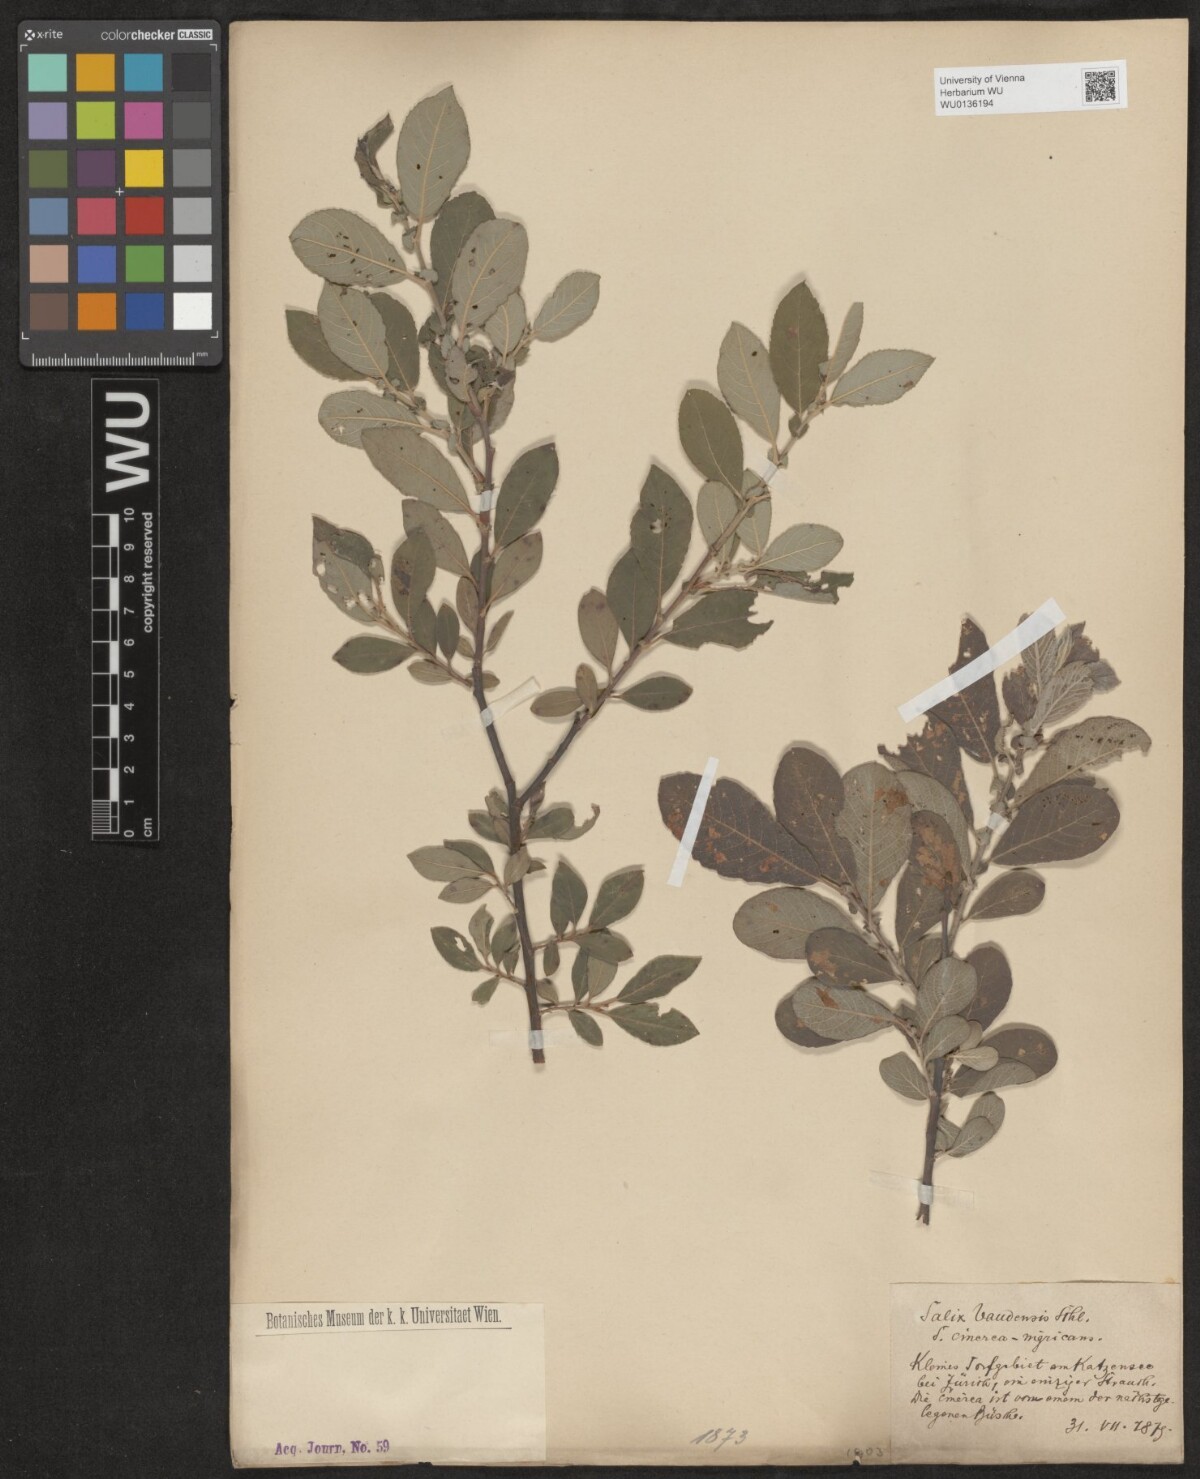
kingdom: Plantae
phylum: Tracheophyta
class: Magnoliopsida
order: Malpighiales
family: Salicaceae
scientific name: Salicaceae
